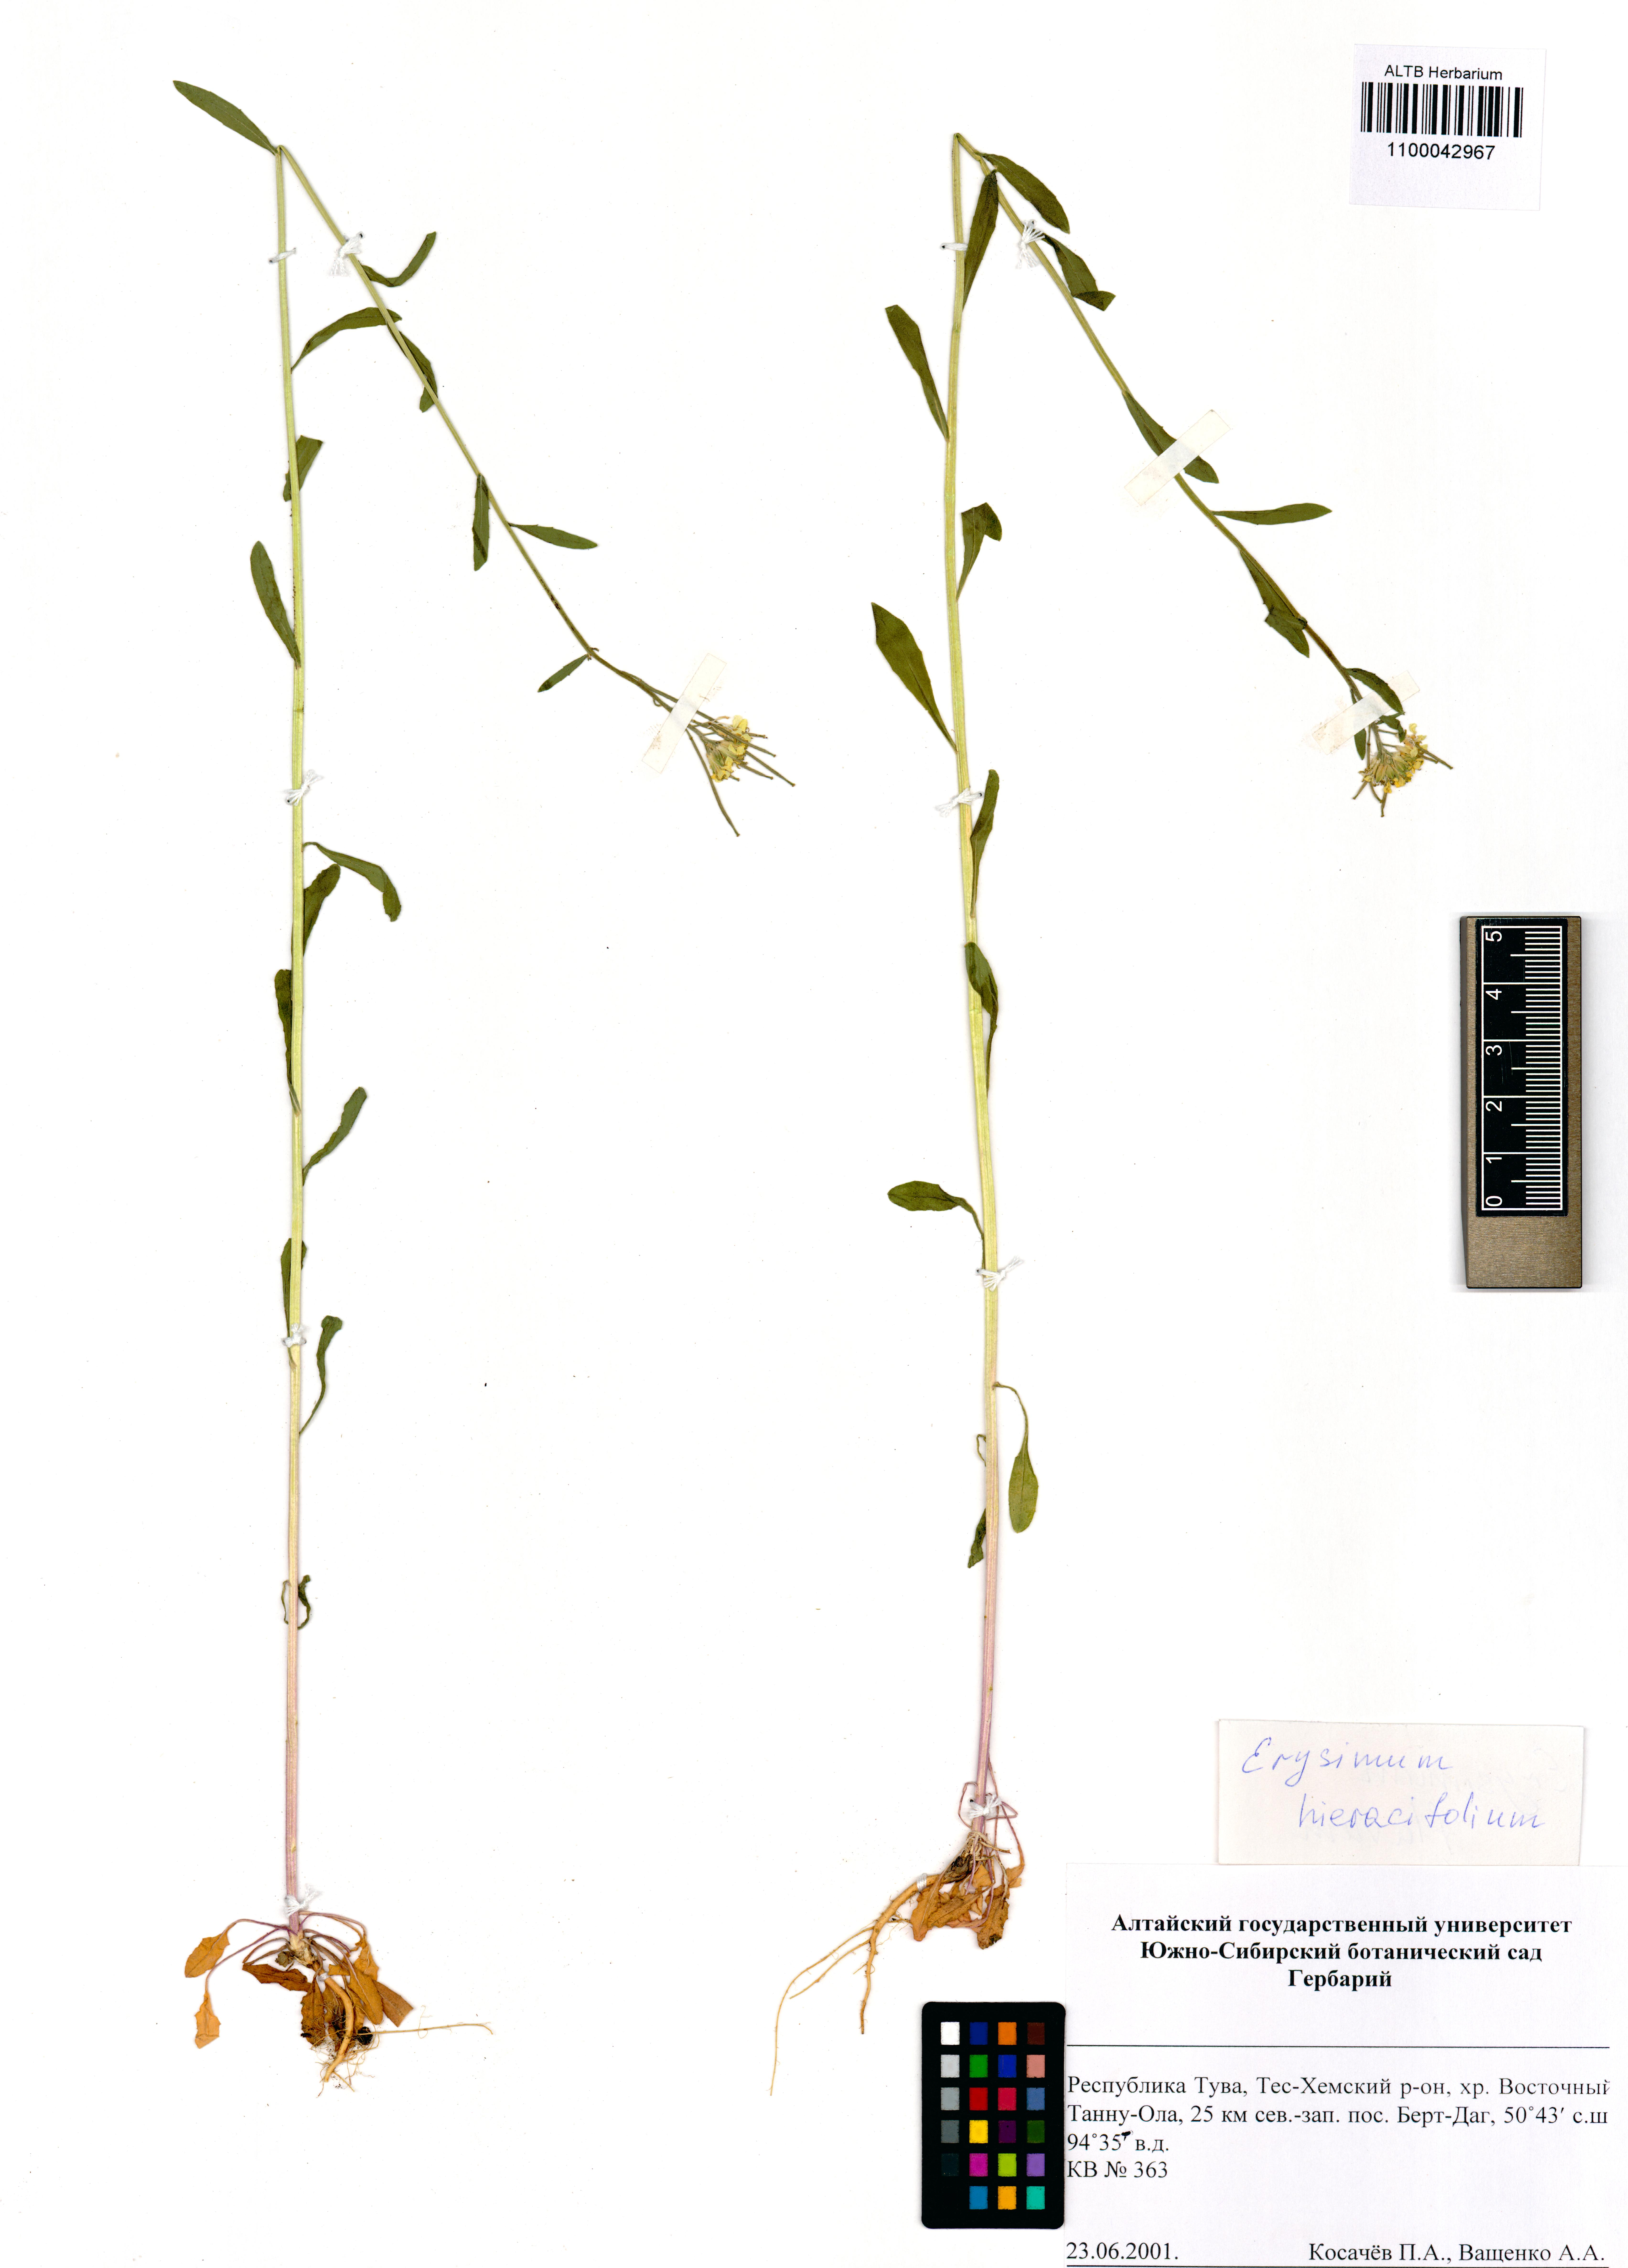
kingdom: Plantae
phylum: Tracheophyta
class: Magnoliopsida
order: Brassicales
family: Brassicaceae
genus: Erysimum
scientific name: Erysimum hieraciifolium
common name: European wallflower
